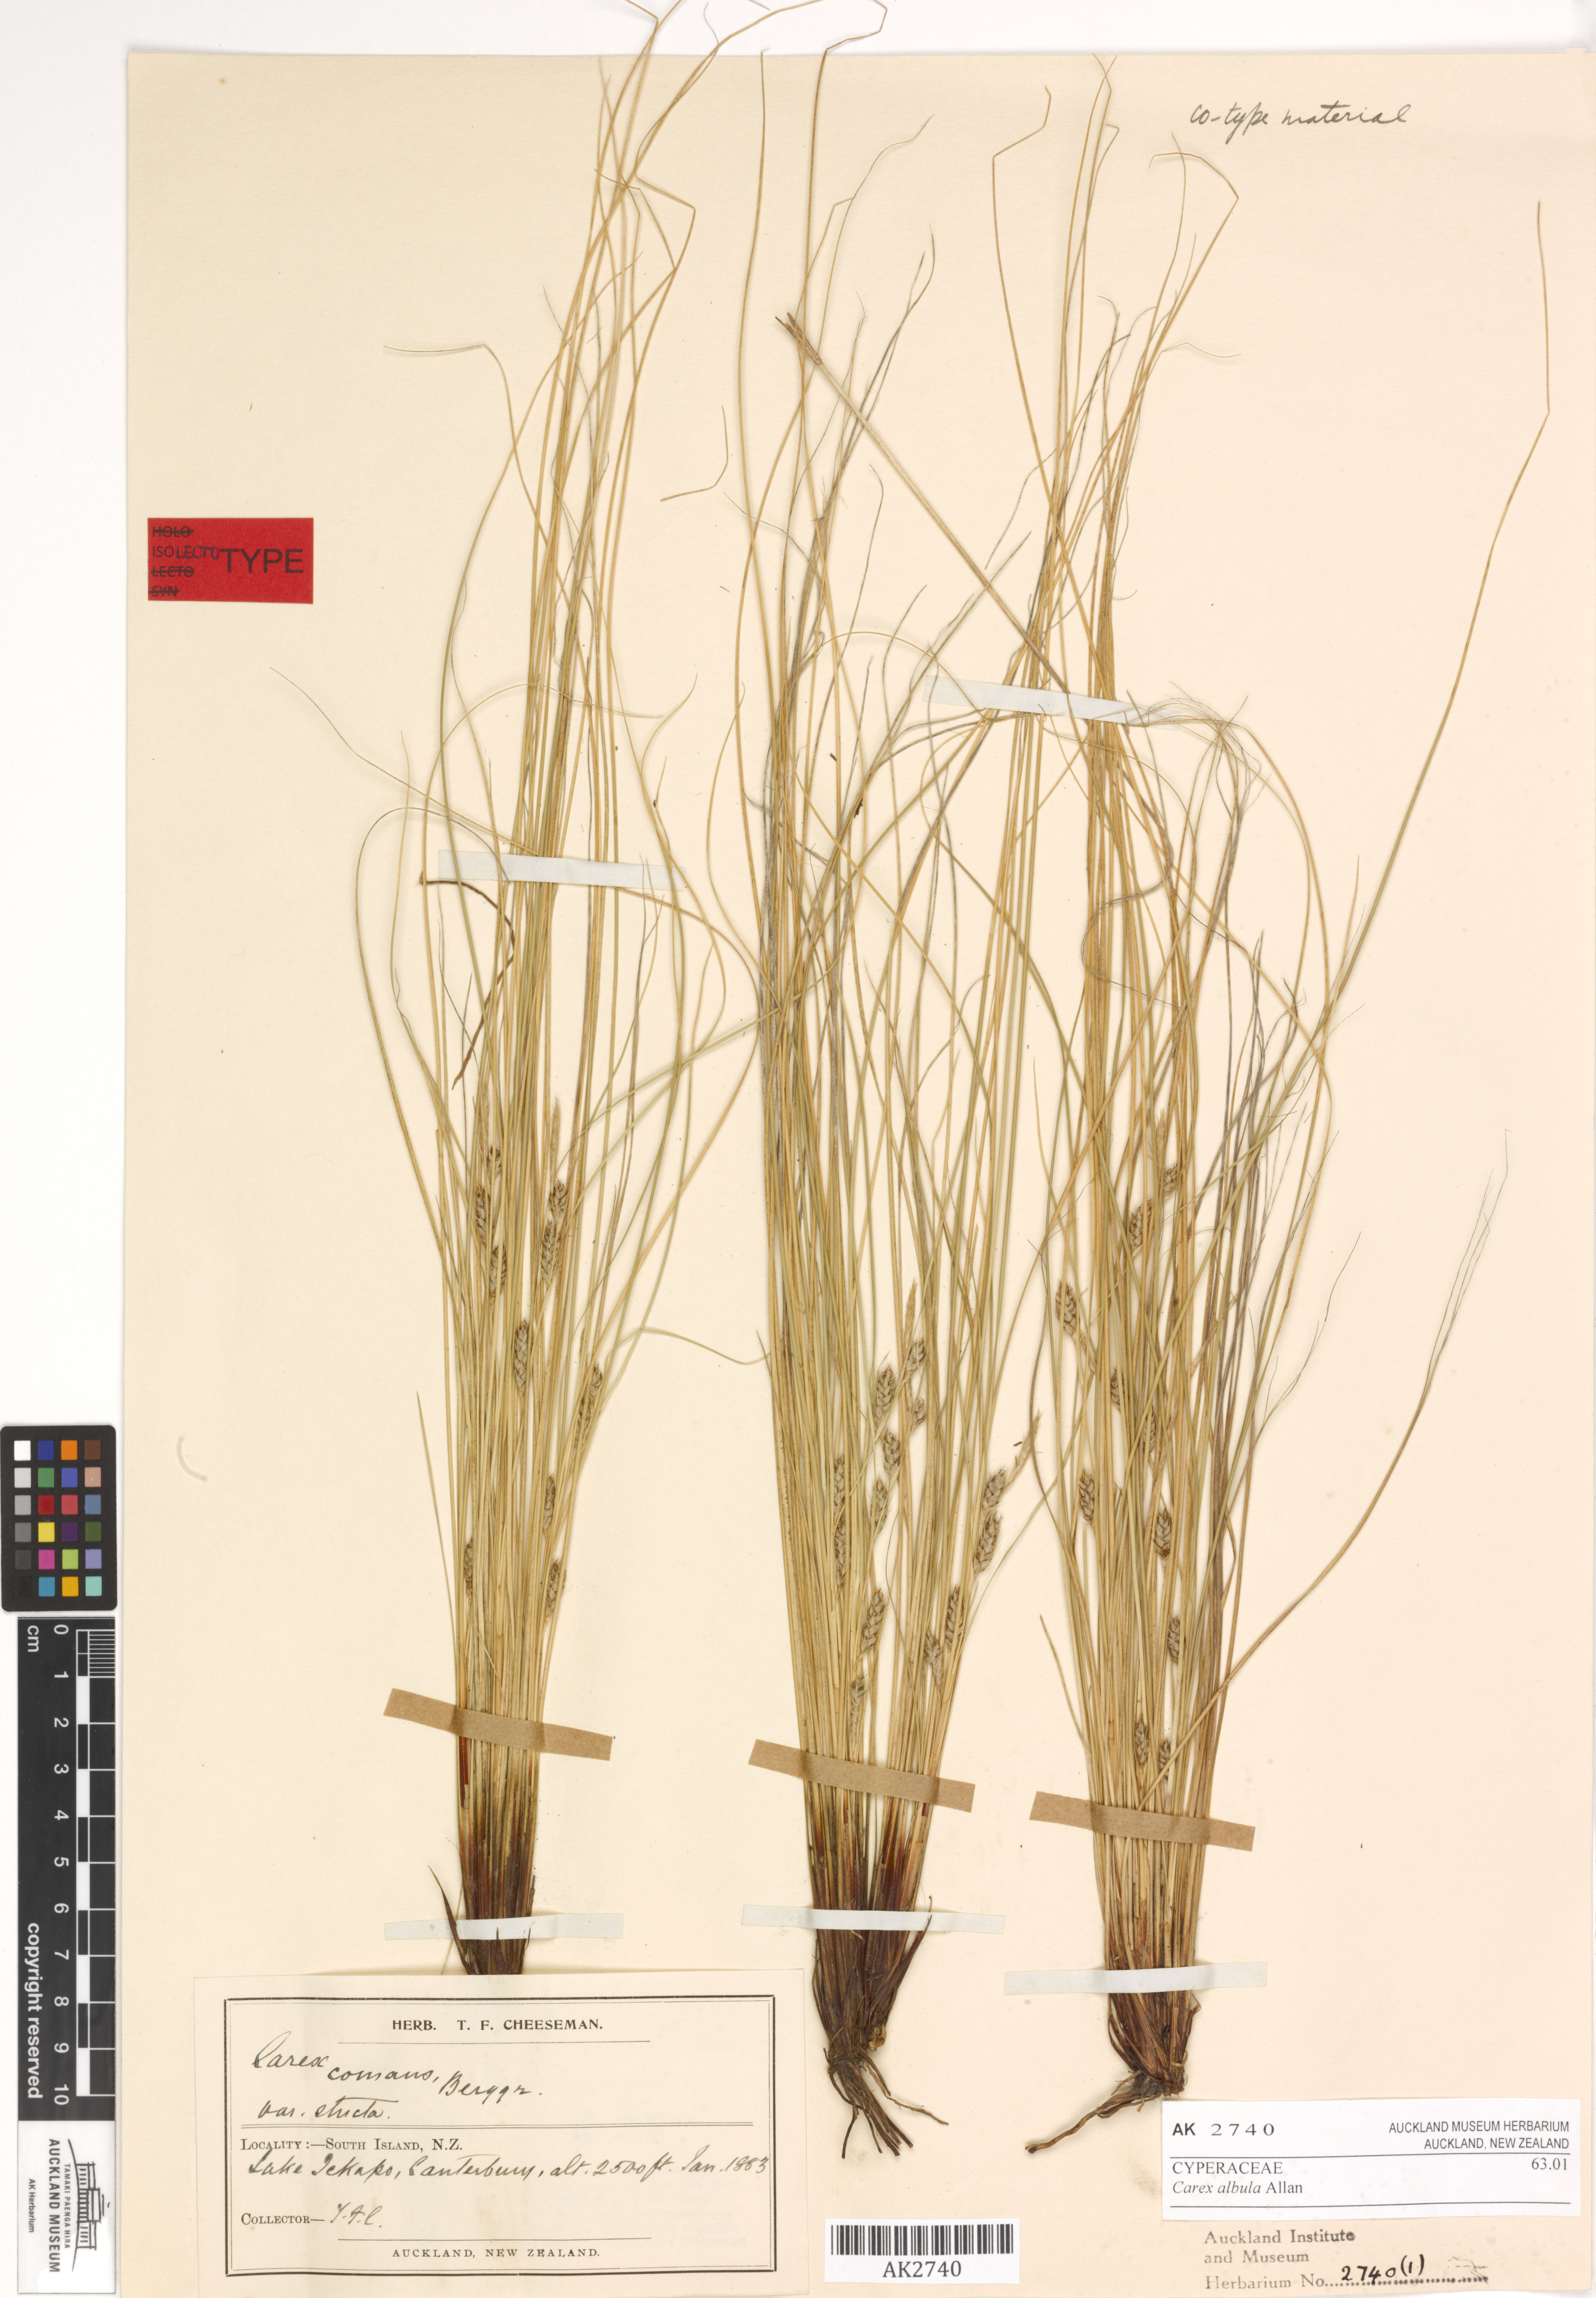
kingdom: Plantae
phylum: Tracheophyta
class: Liliopsida
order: Poales
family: Cyperaceae
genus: Carex
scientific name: Carex albula
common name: Blonde sedge
